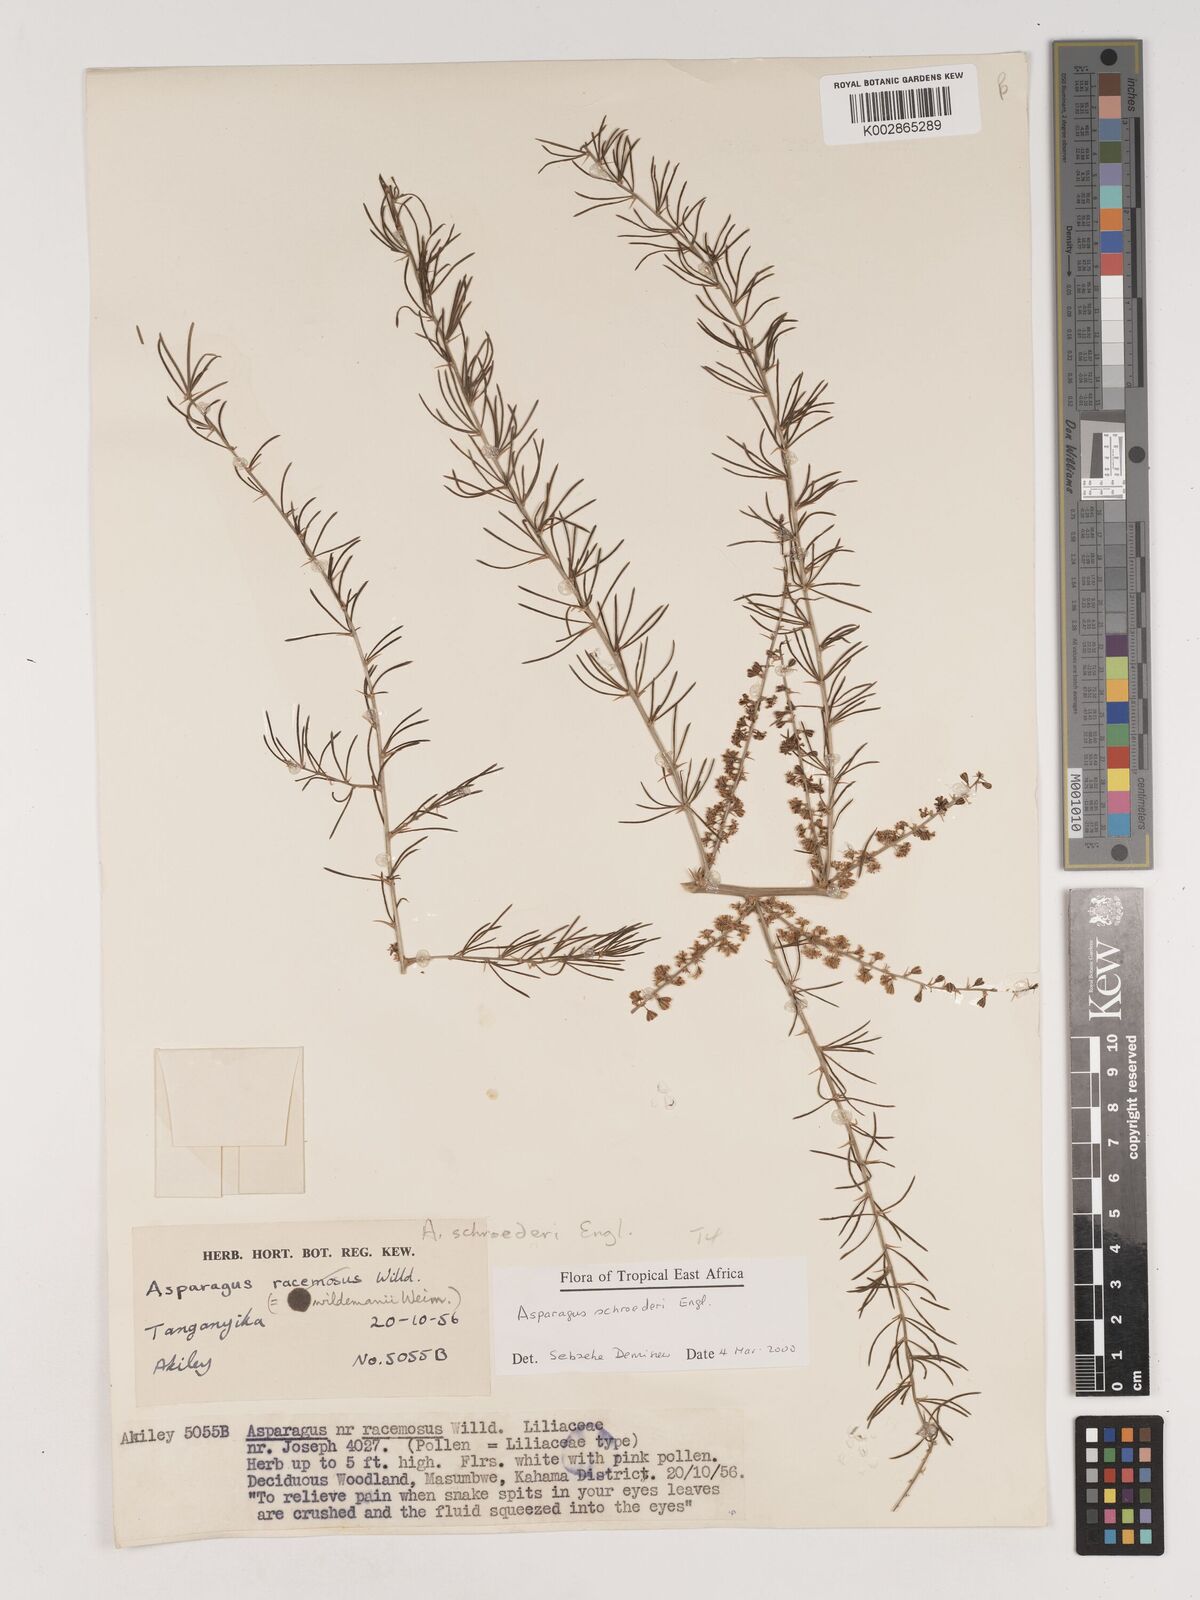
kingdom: Plantae
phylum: Tracheophyta
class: Liliopsida
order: Asparagales
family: Asparagaceae
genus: Asparagus
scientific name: Asparagus schroederi
